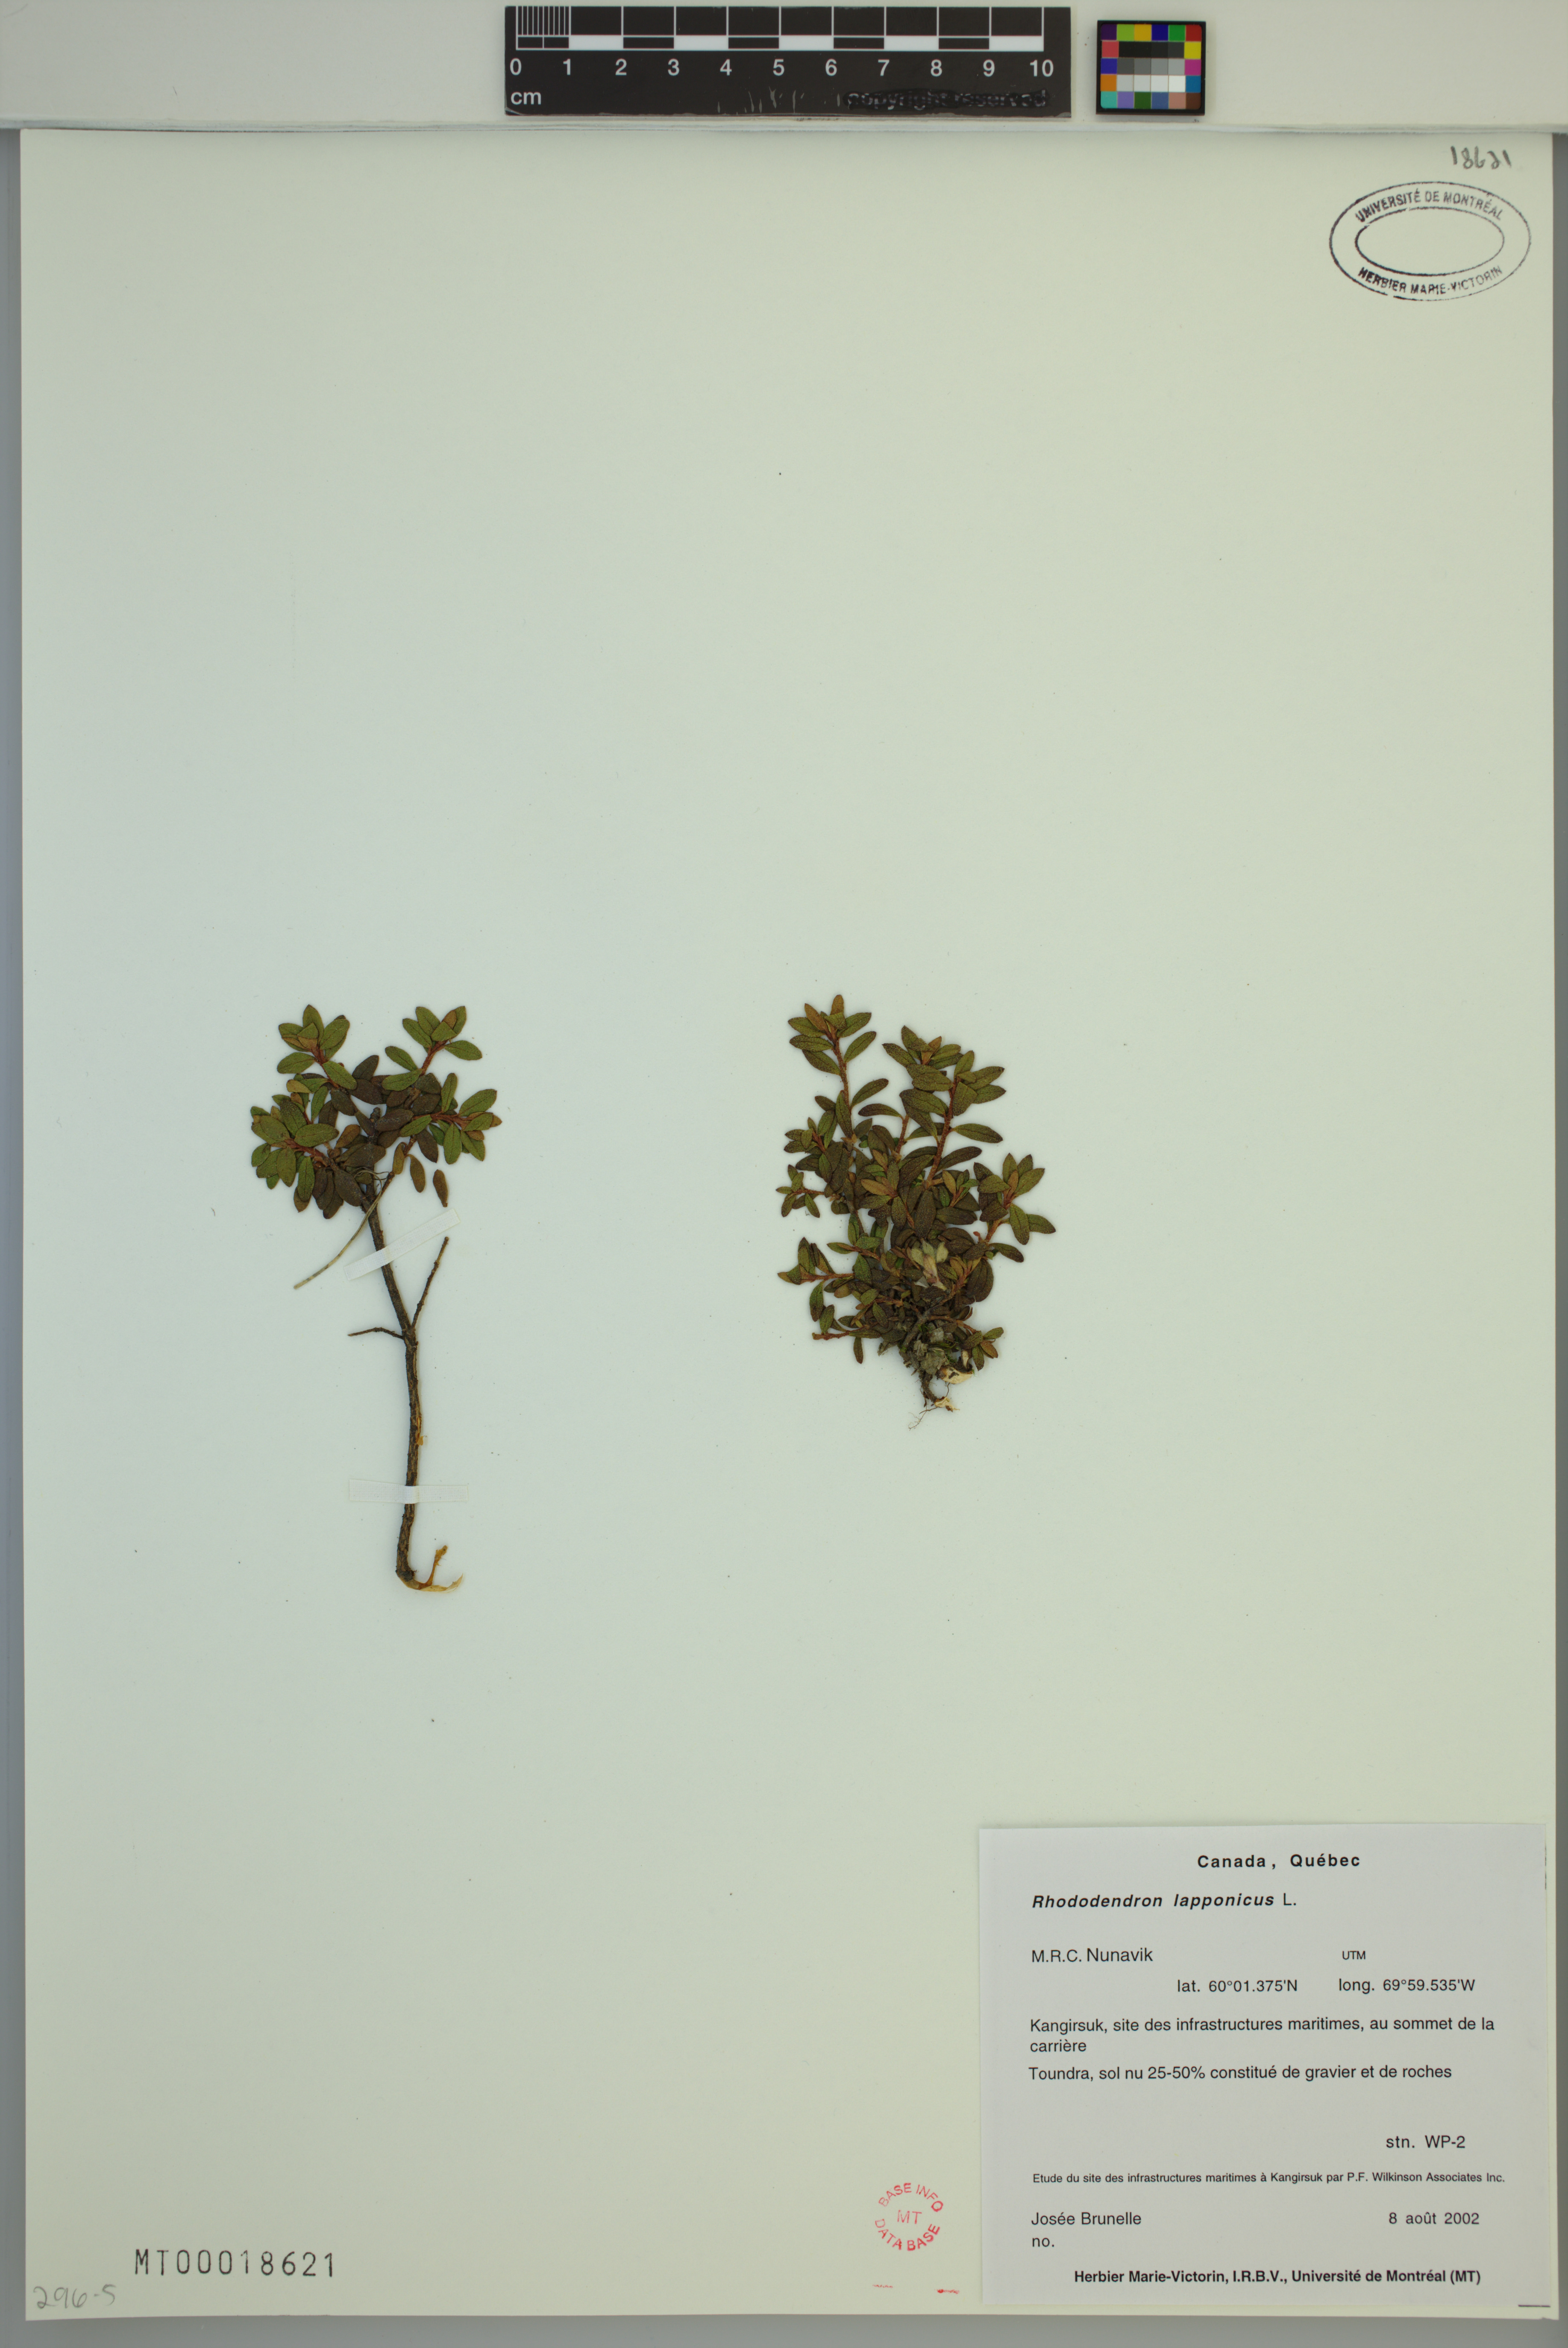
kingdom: Plantae
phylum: Tracheophyta
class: Magnoliopsida
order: Ericales
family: Ericaceae
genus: Rhododendron
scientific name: Rhododendron lapponicum
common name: Lapland rhododendron
